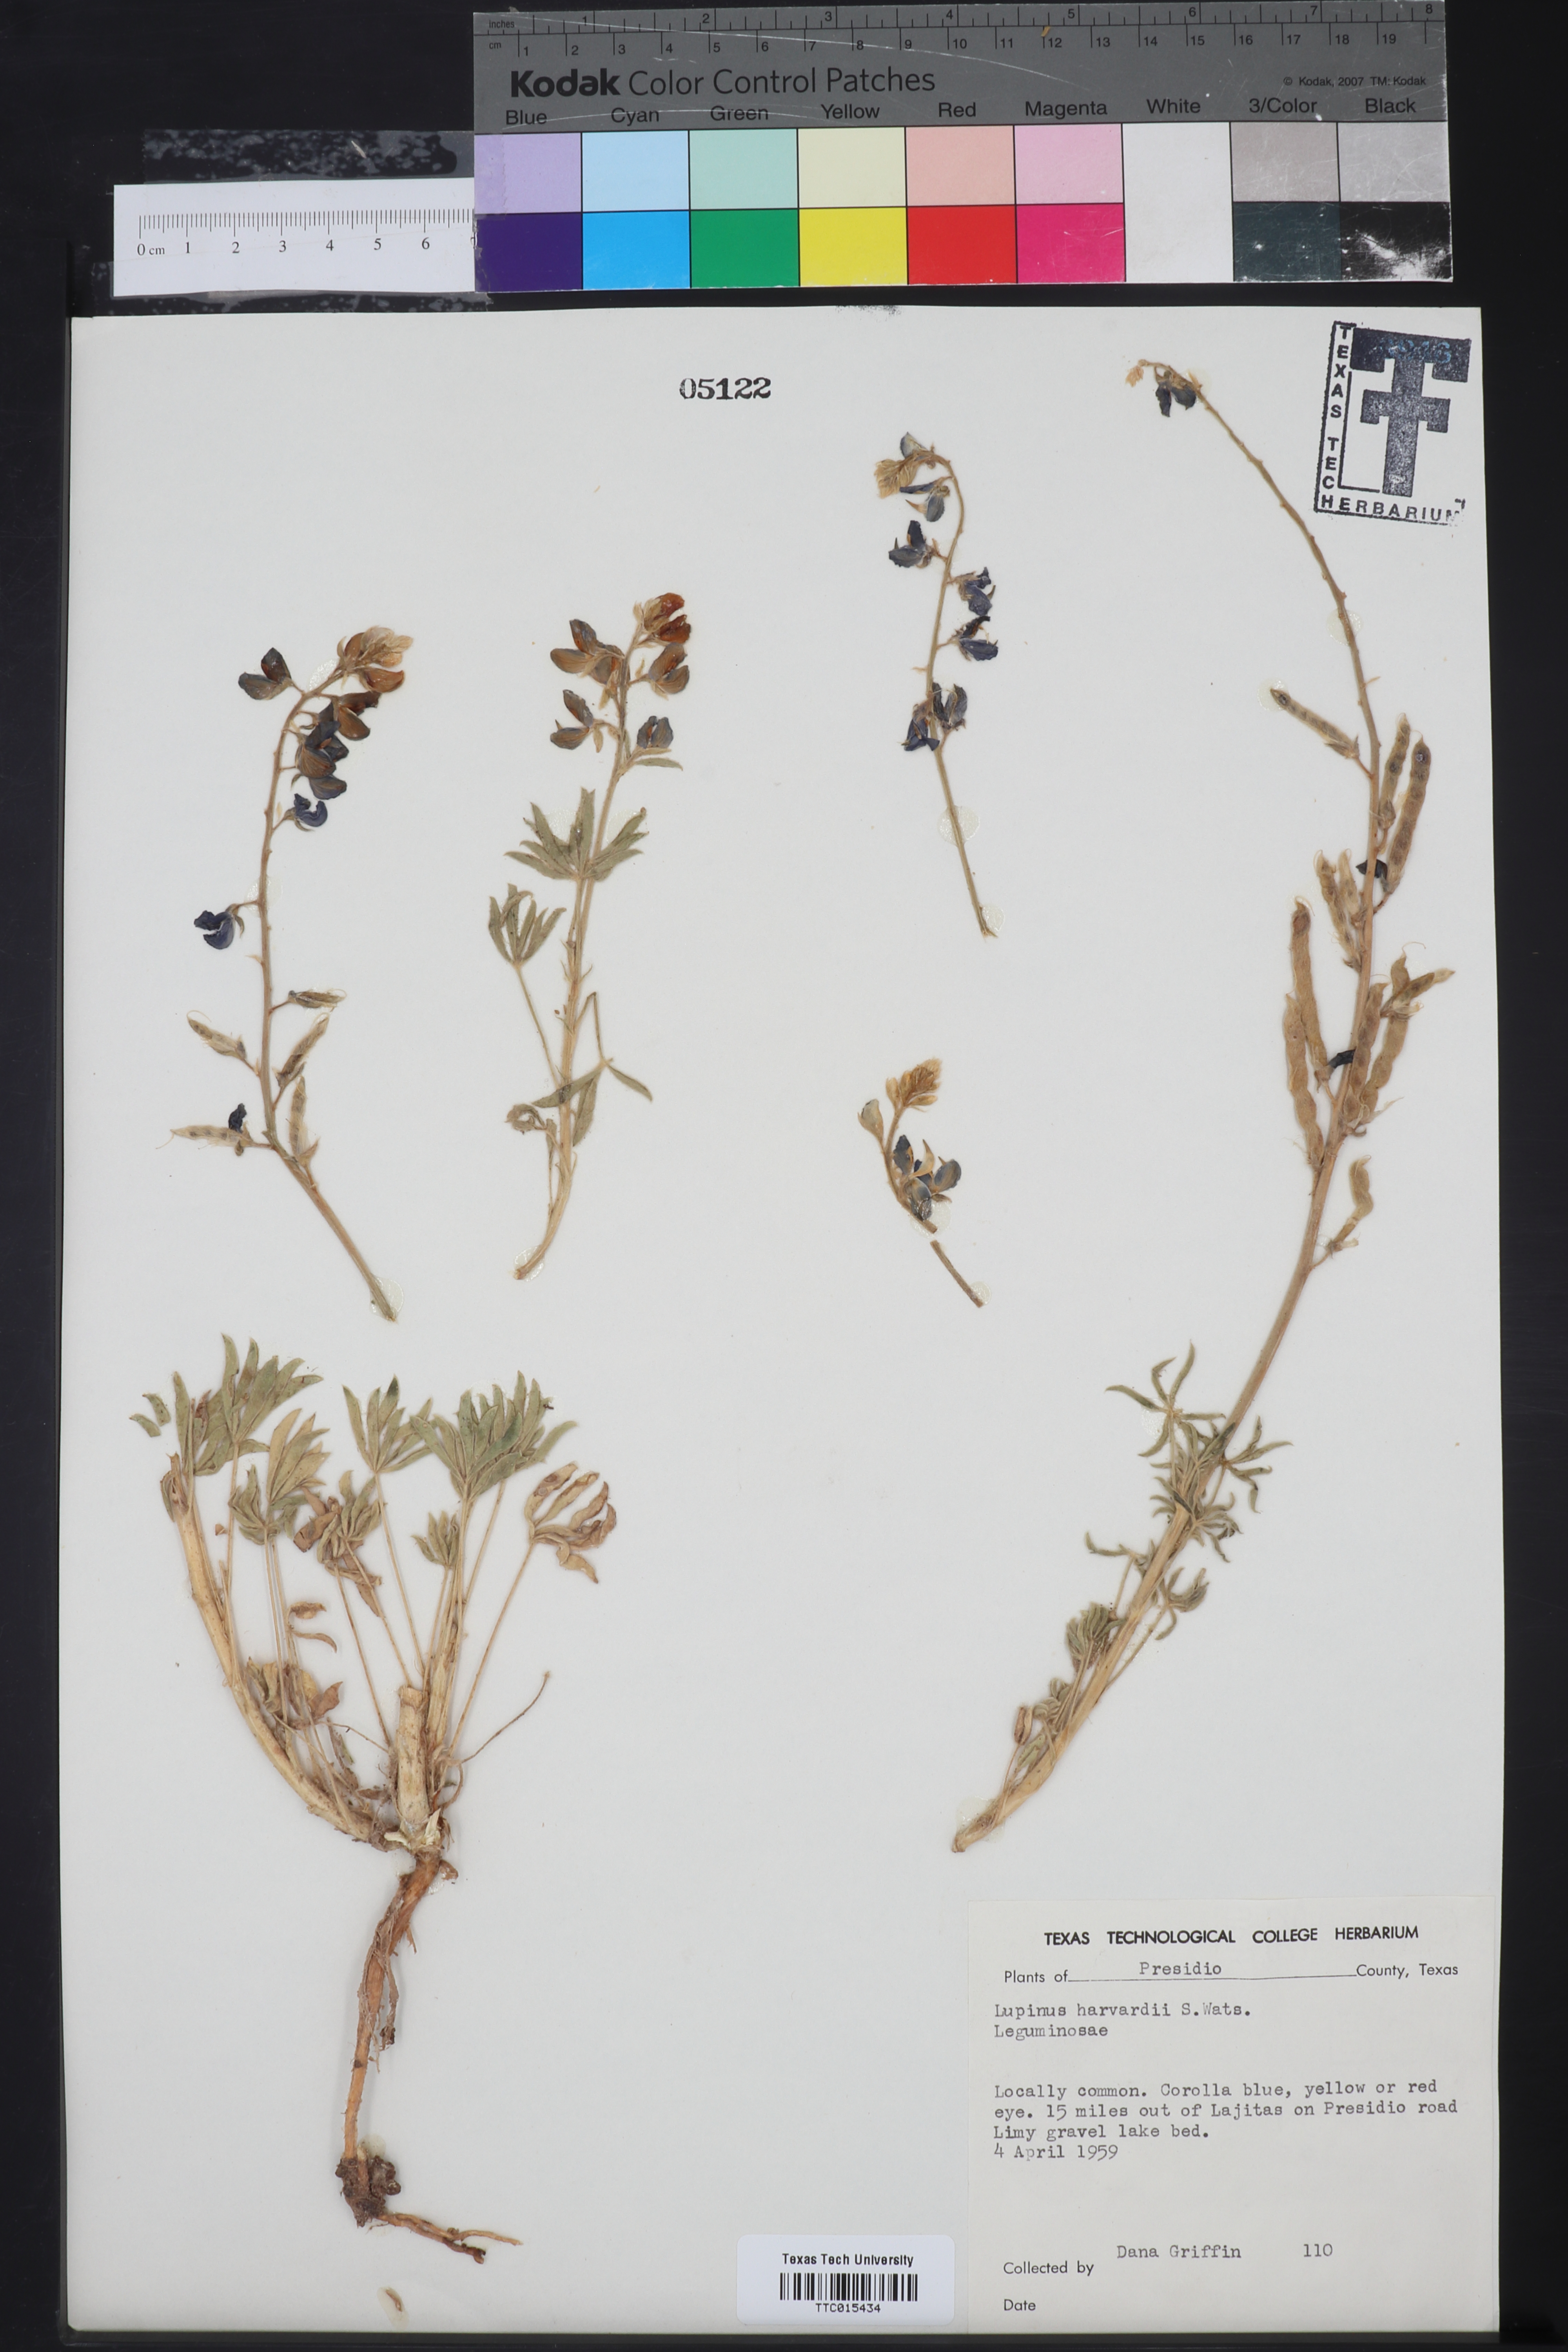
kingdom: Plantae
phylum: Tracheophyta
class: Magnoliopsida
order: Fabales
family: Fabaceae
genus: Lupinus
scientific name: Lupinus havardii
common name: Chisos bluebonnet
